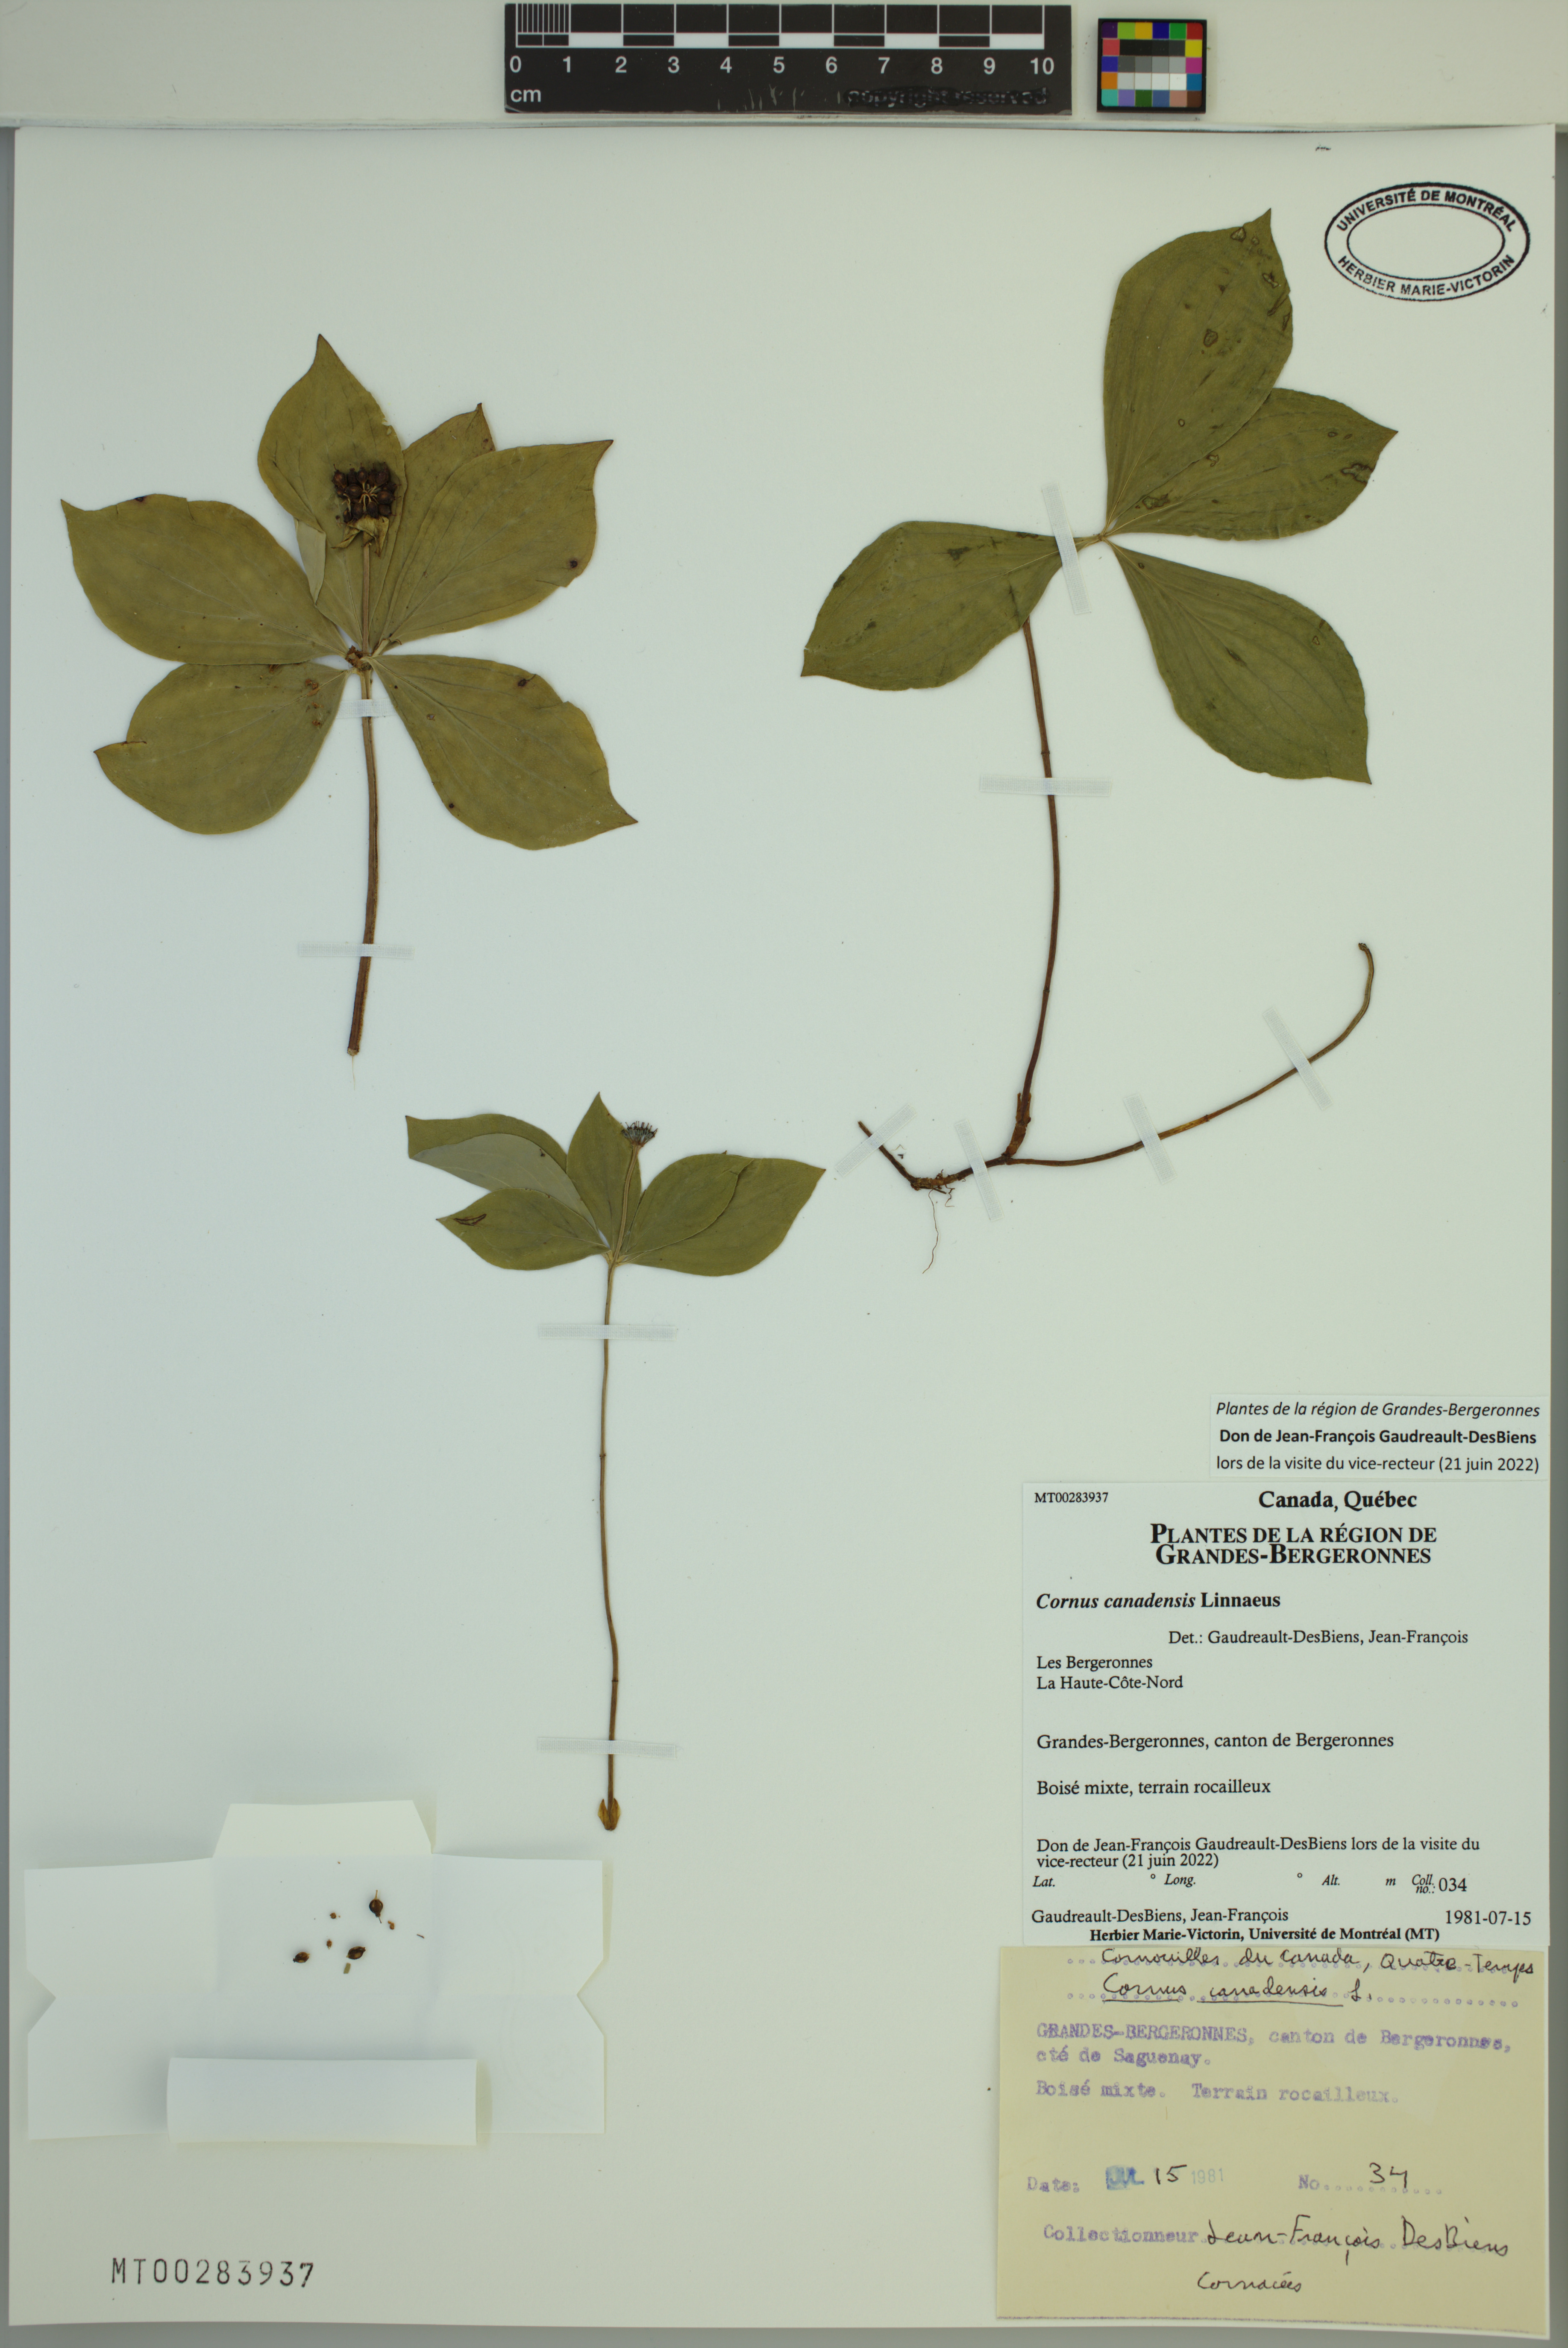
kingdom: Plantae
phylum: Tracheophyta
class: Magnoliopsida
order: Cornales
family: Cornaceae
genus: Cornus
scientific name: Cornus canadensis
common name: Creeping dogwood
